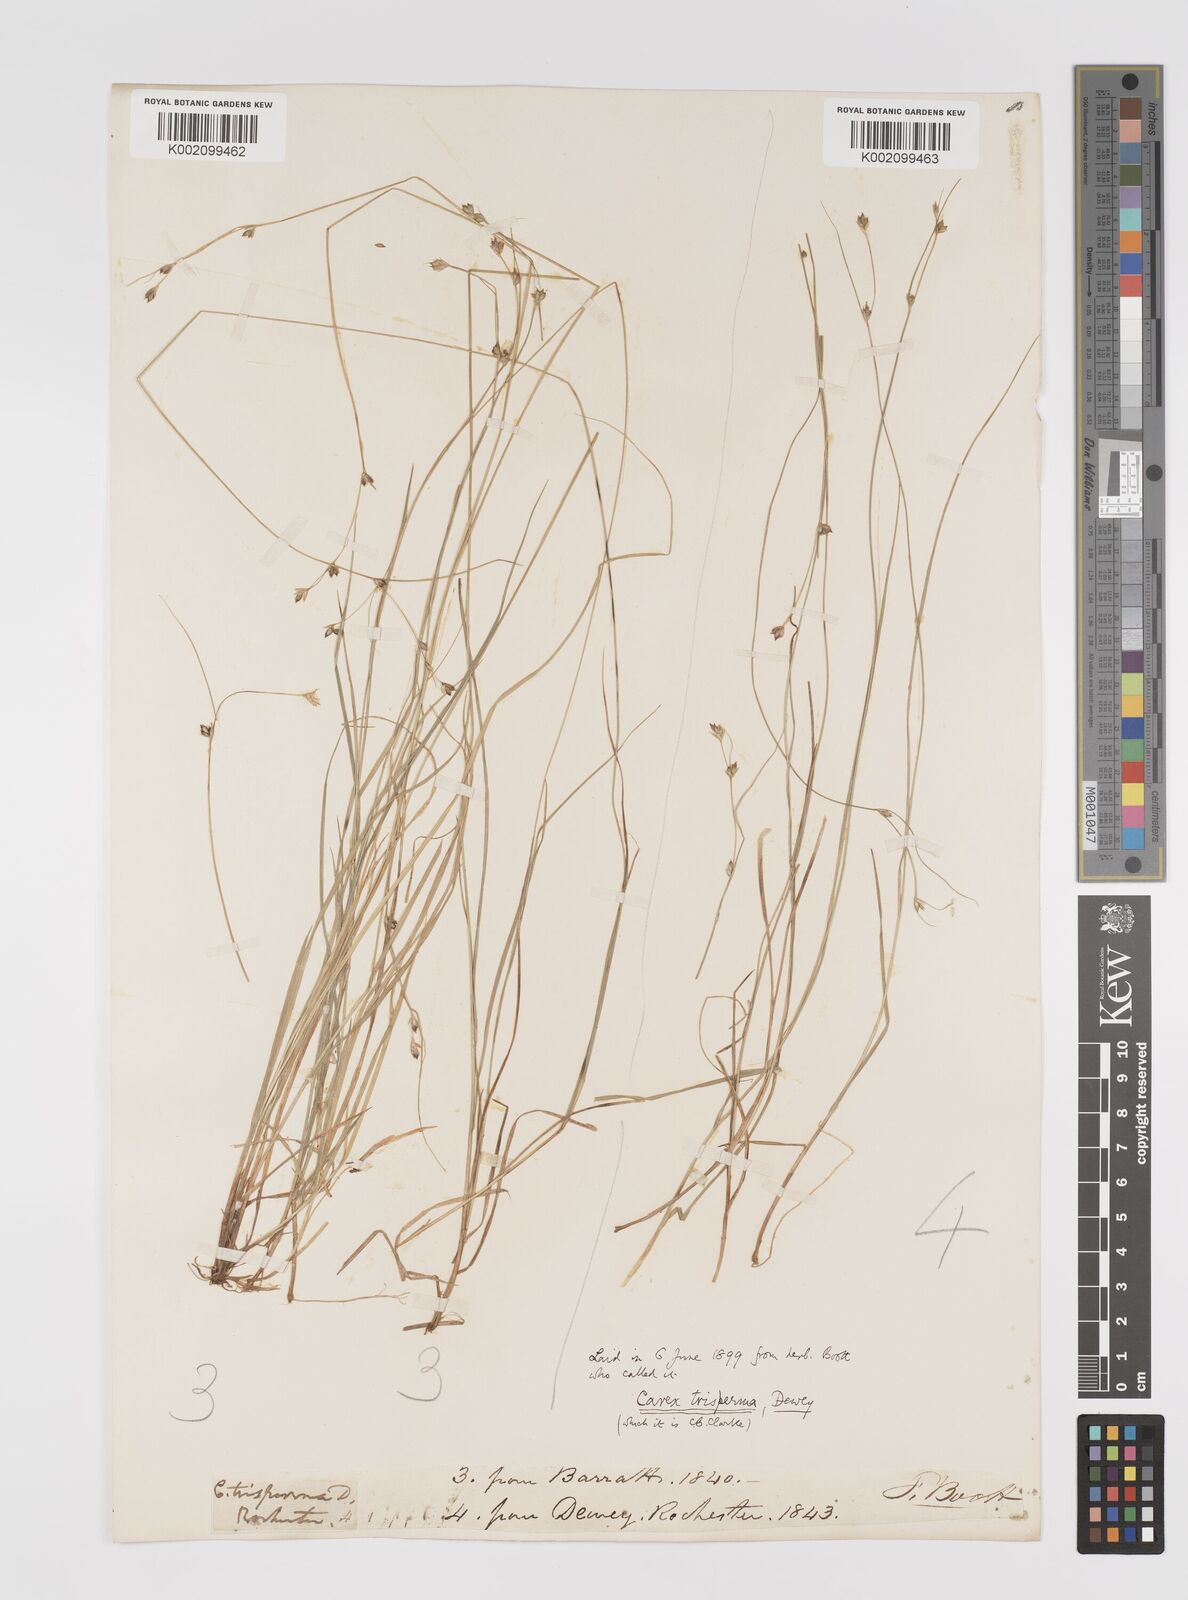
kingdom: Plantae
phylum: Tracheophyta
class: Liliopsida
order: Poales
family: Cyperaceae
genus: Carex
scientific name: Carex trisperma
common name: Three-seeded sedge
